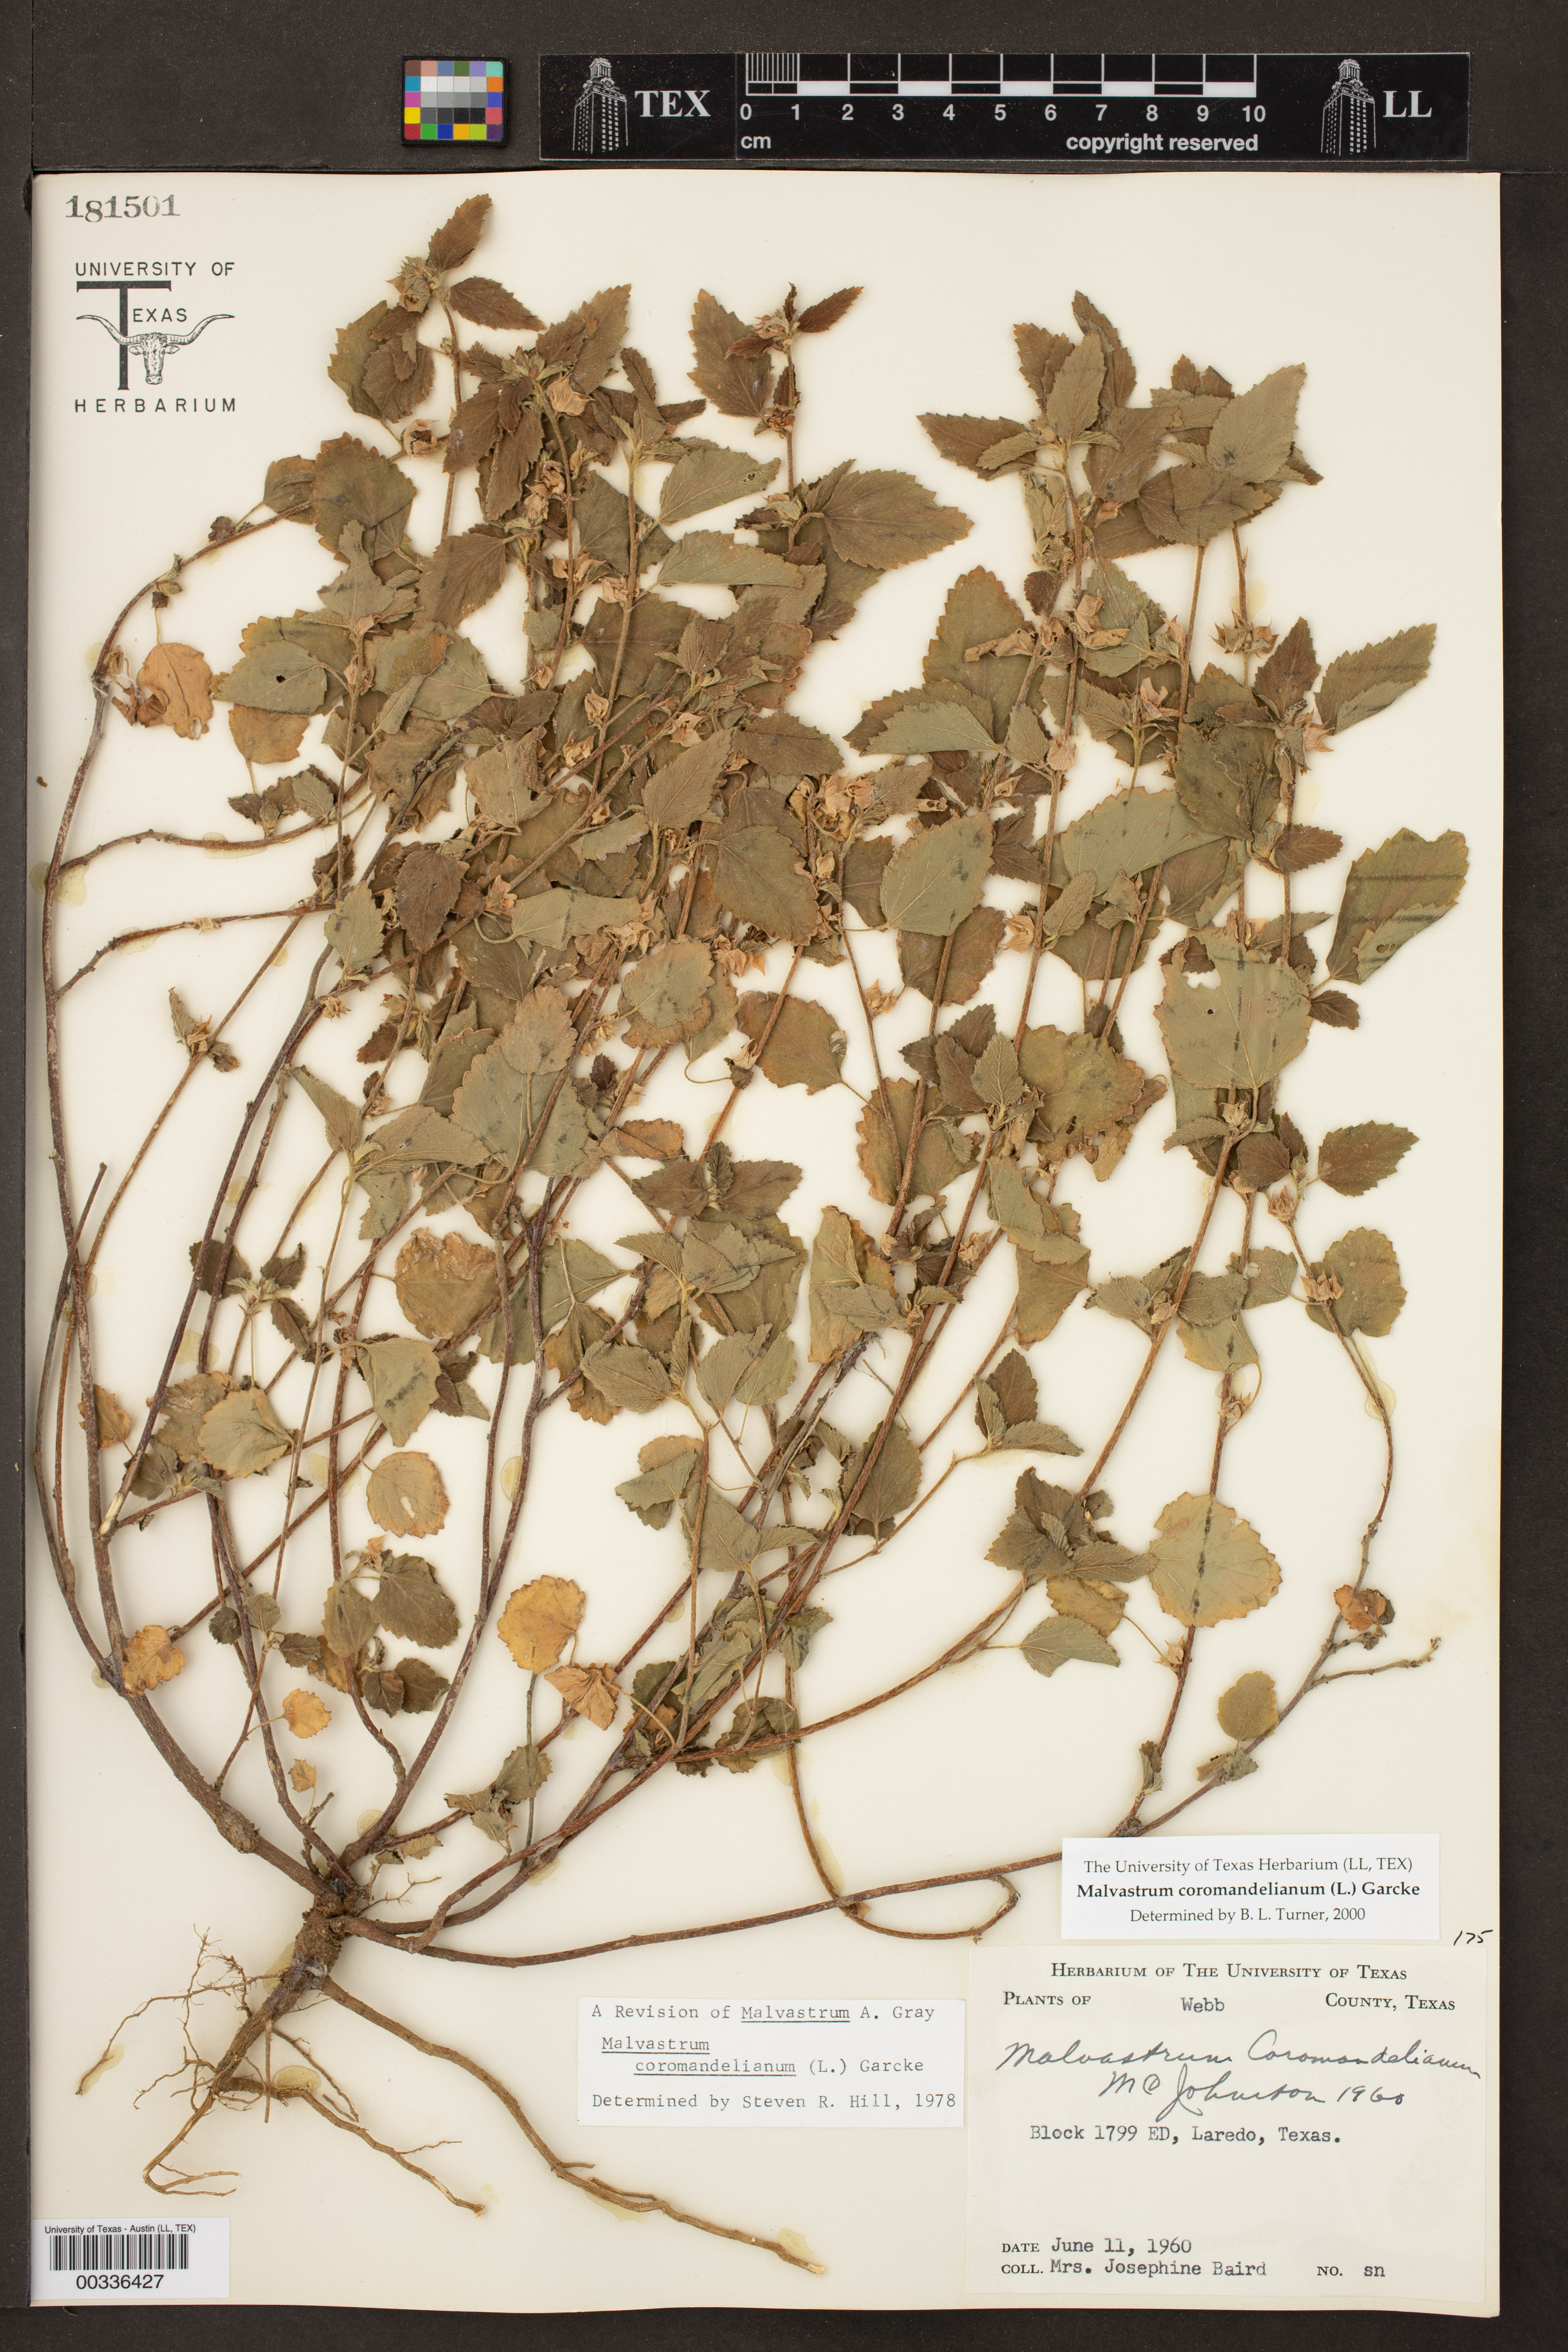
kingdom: Plantae
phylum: Tracheophyta
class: Magnoliopsida
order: Malvales
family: Malvaceae
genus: Malvastrum
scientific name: Malvastrum coromandelianum
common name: Threelobe false mallow
